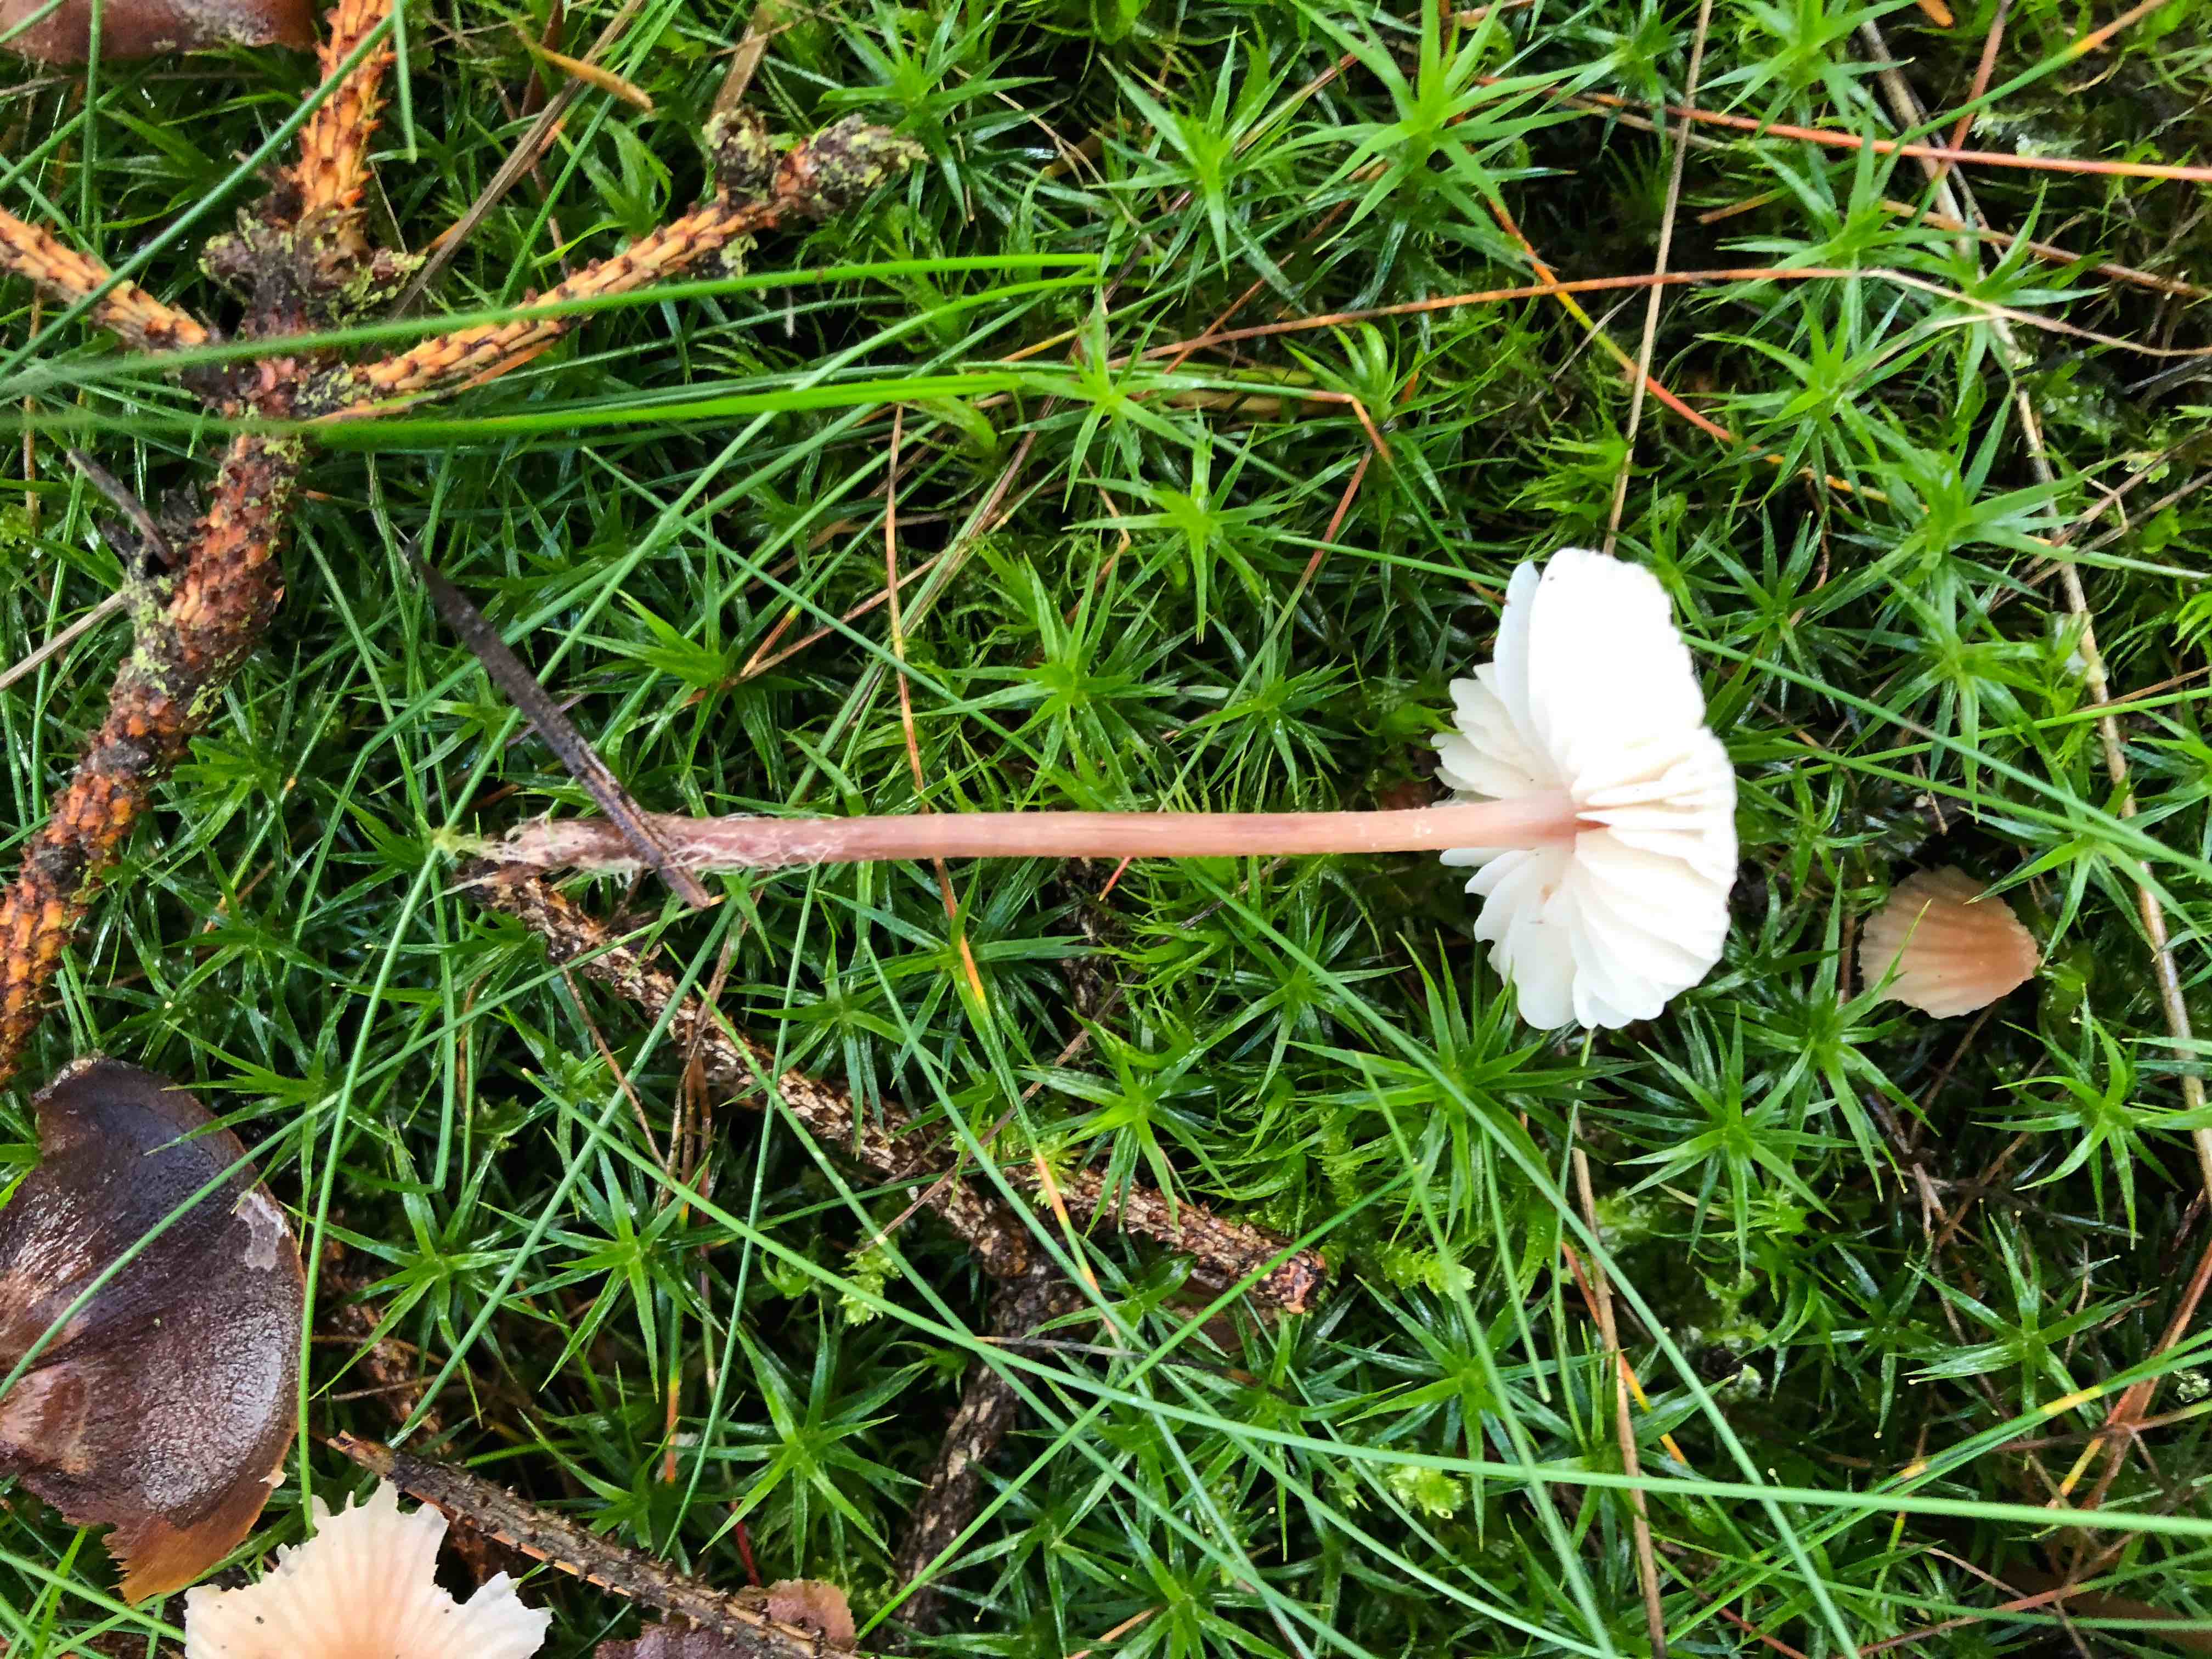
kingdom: Fungi
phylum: Basidiomycota
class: Agaricomycetes
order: Agaricales
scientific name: Agaricales
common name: champignonordenen
